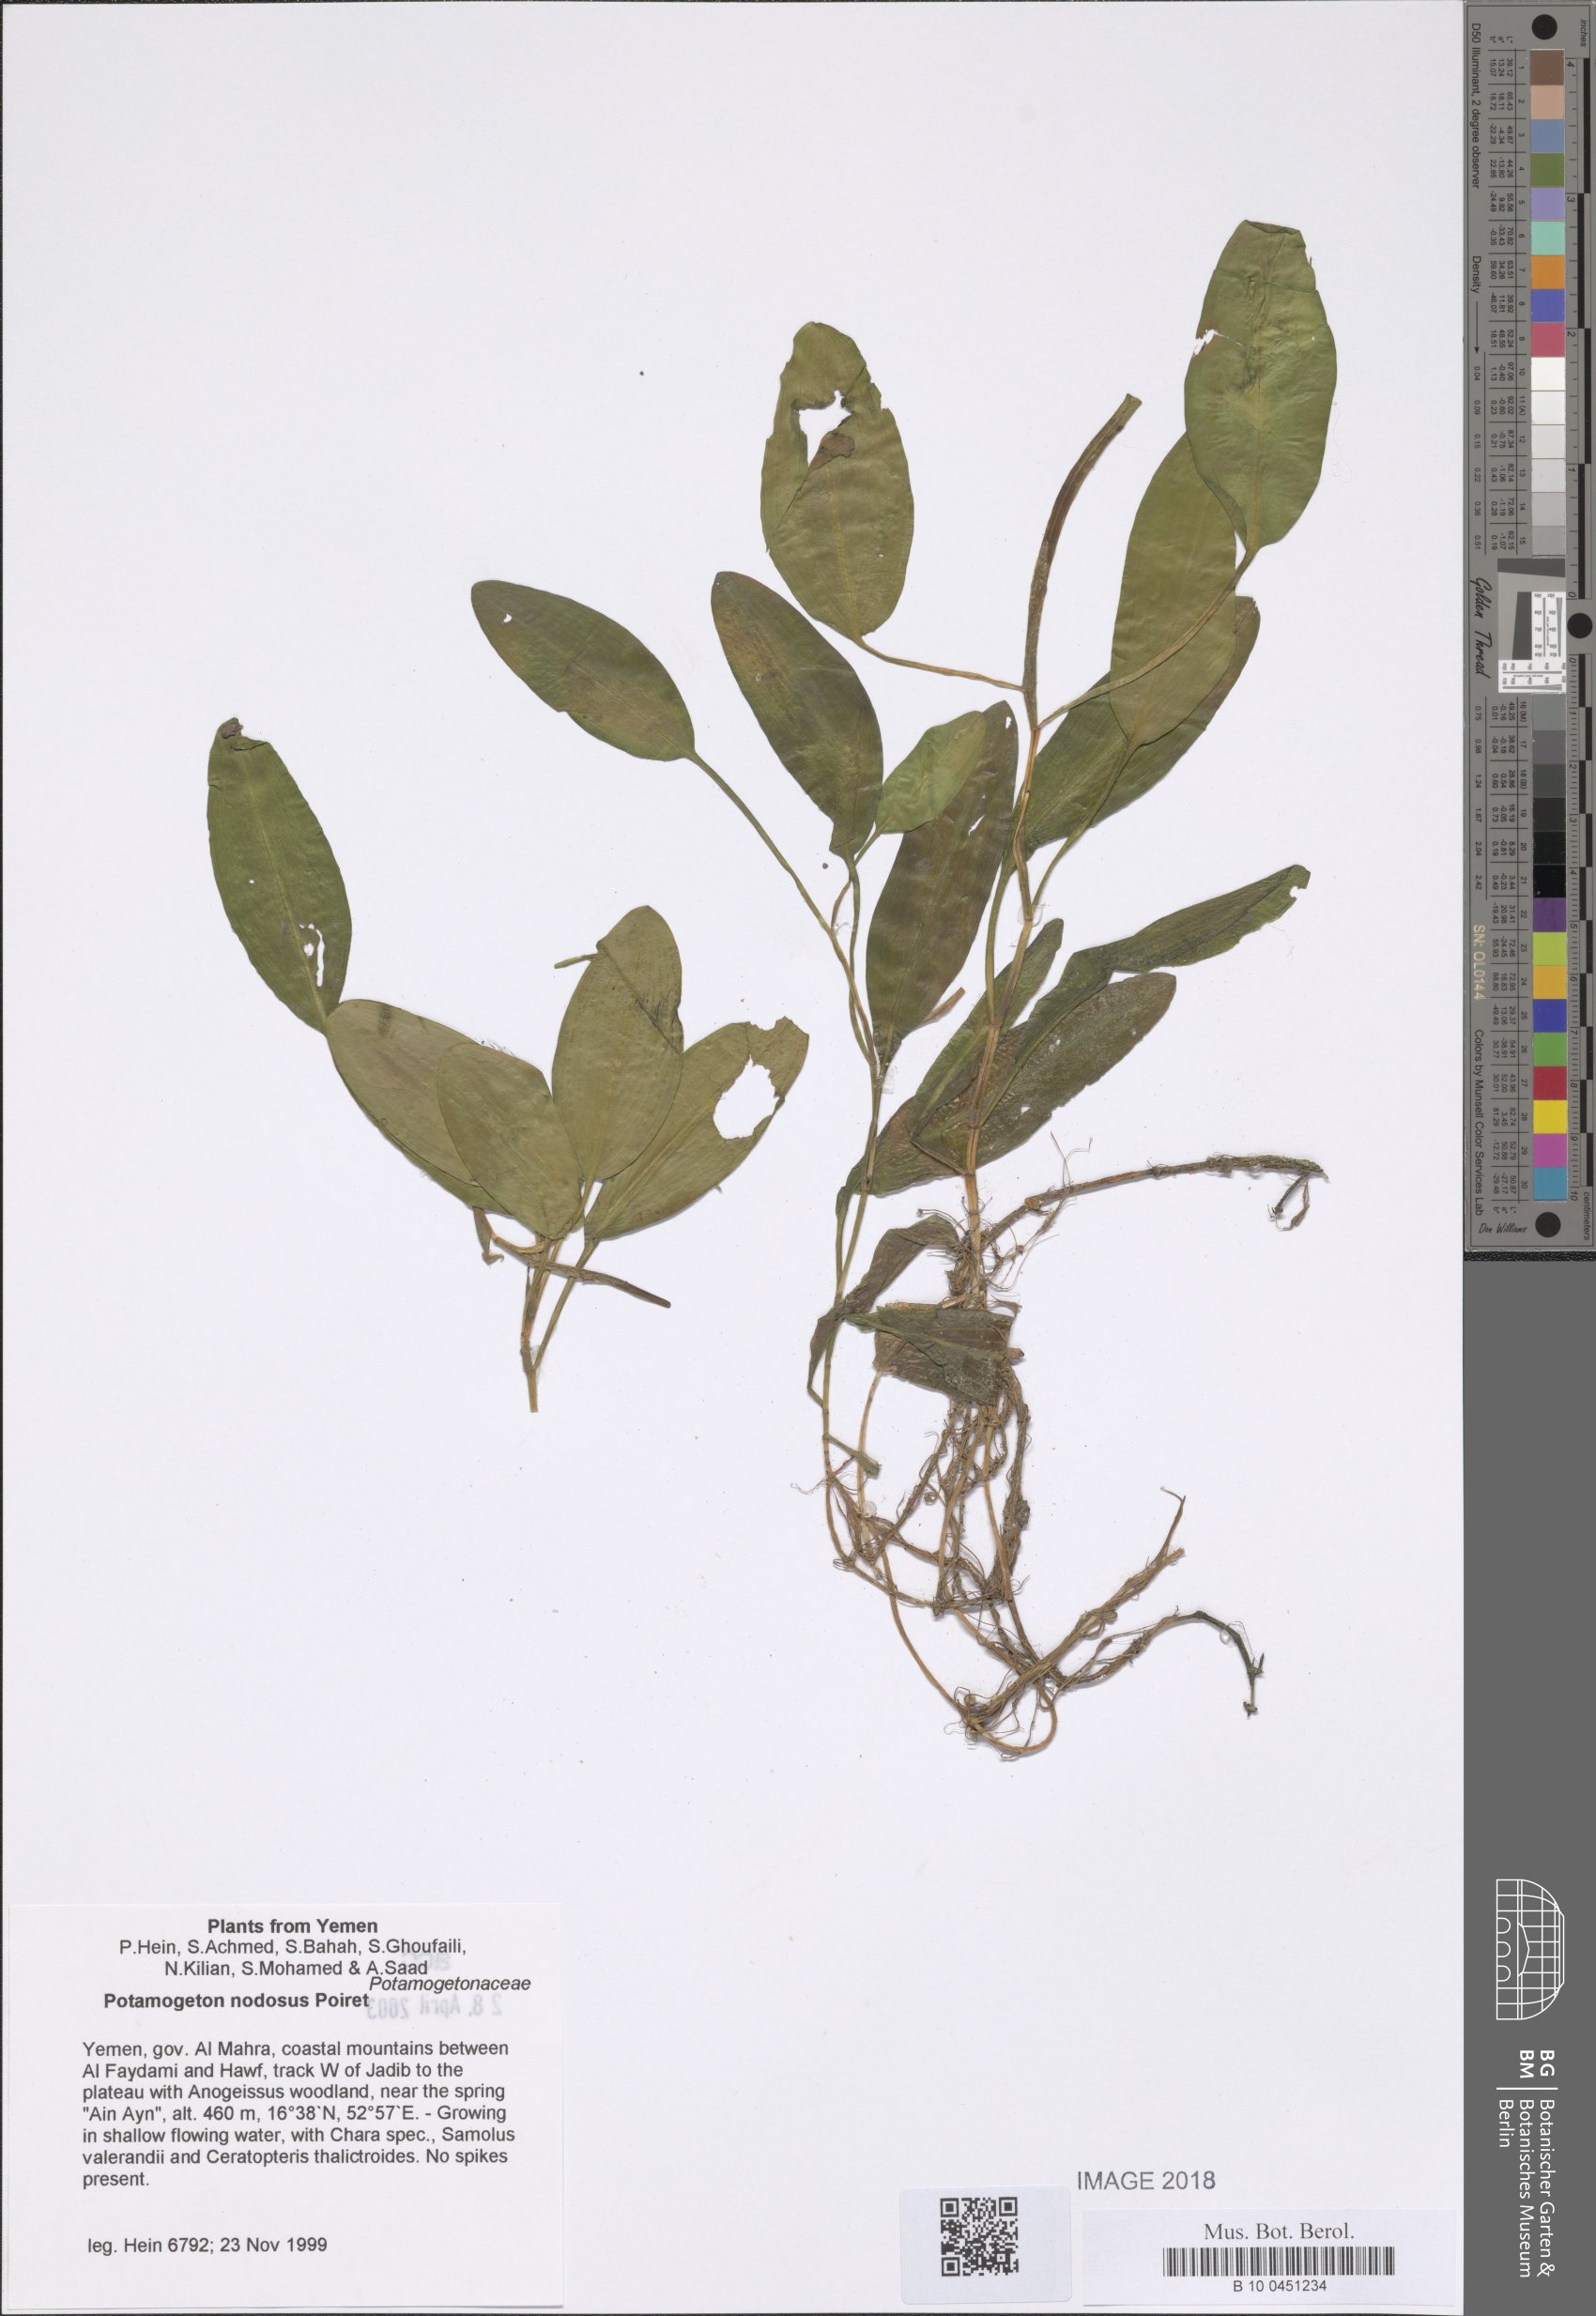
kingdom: Plantae
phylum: Tracheophyta
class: Liliopsida
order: Alismatales
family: Potamogetonaceae
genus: Potamogeton
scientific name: Potamogeton nodosus
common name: Loddon pondweed
